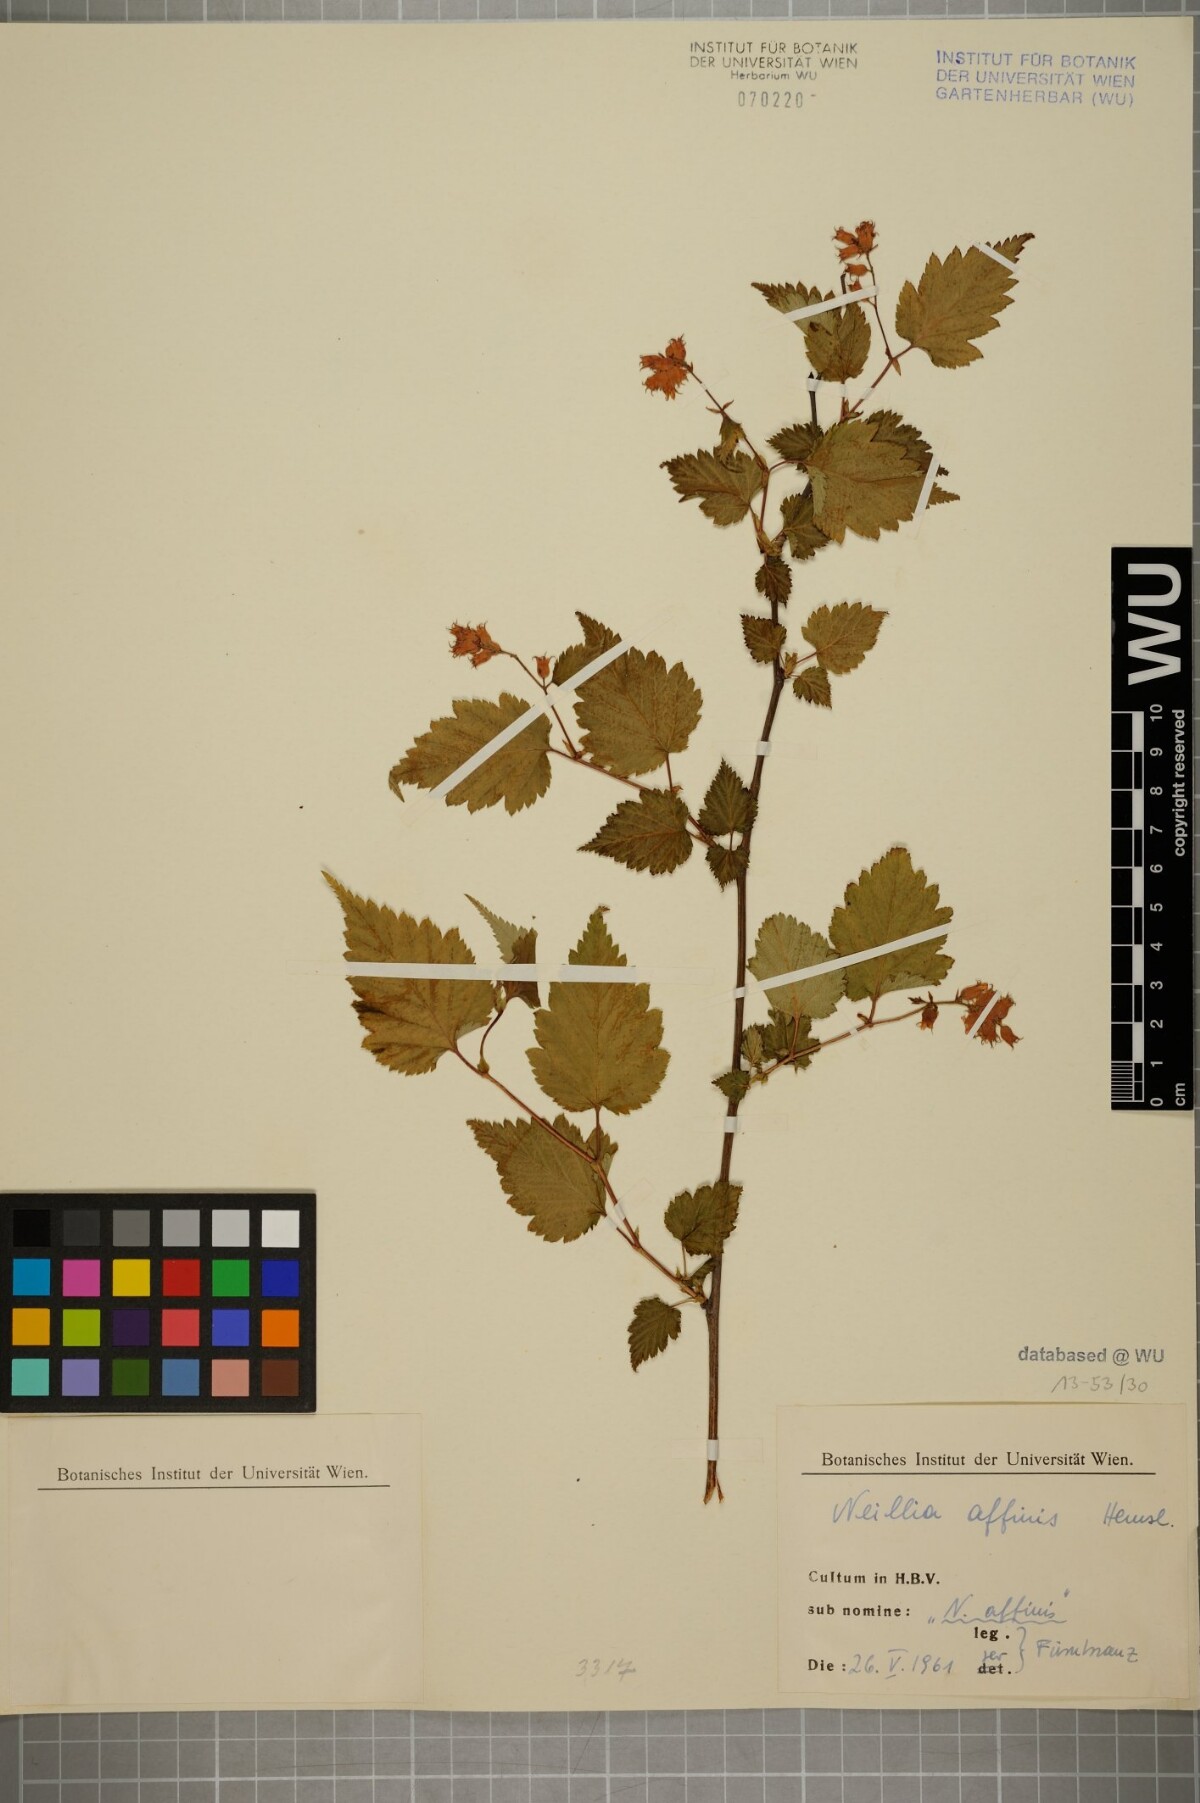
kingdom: Plantae
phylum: Tracheophyta
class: Magnoliopsida
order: Rosales
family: Rosaceae
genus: Neillia
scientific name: Neillia affinis
